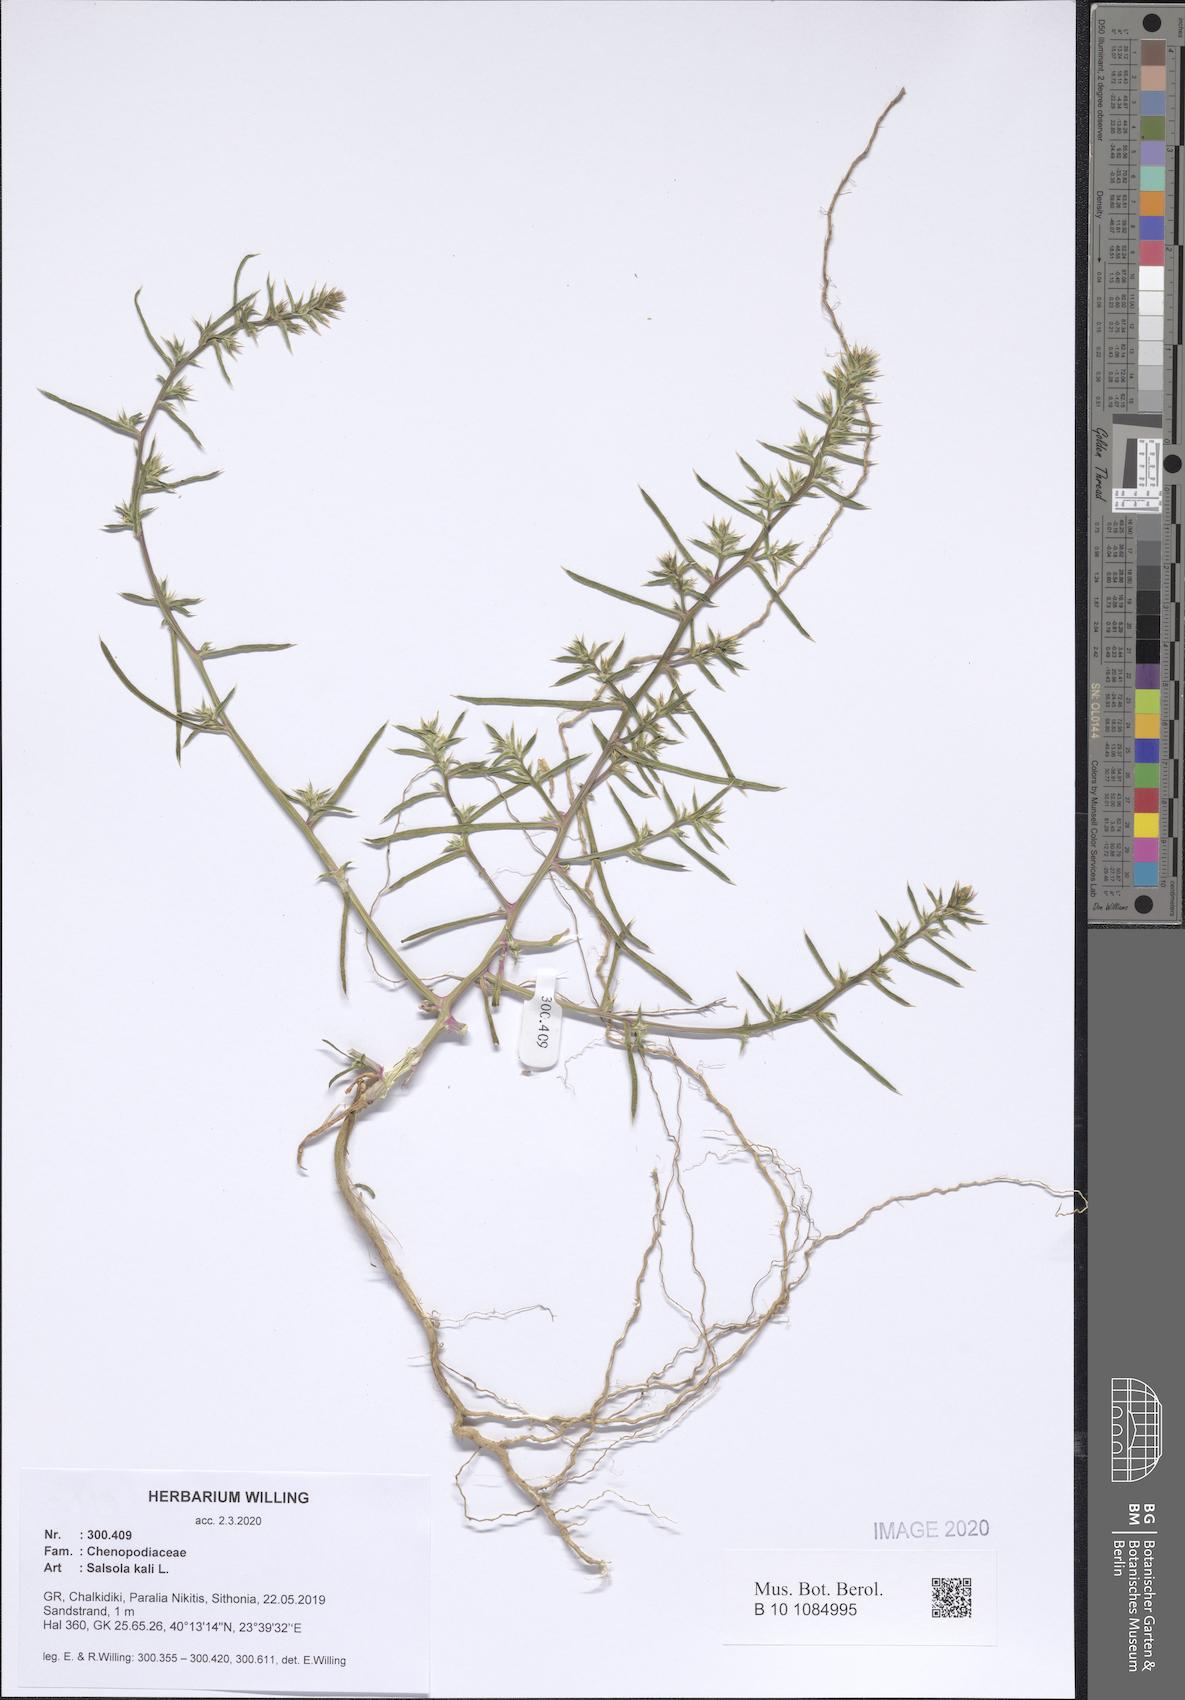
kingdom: Plantae
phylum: Tracheophyta
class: Magnoliopsida
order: Caryophyllales
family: Amaranthaceae
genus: Salsola
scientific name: Salsola kali
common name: Saltwort
